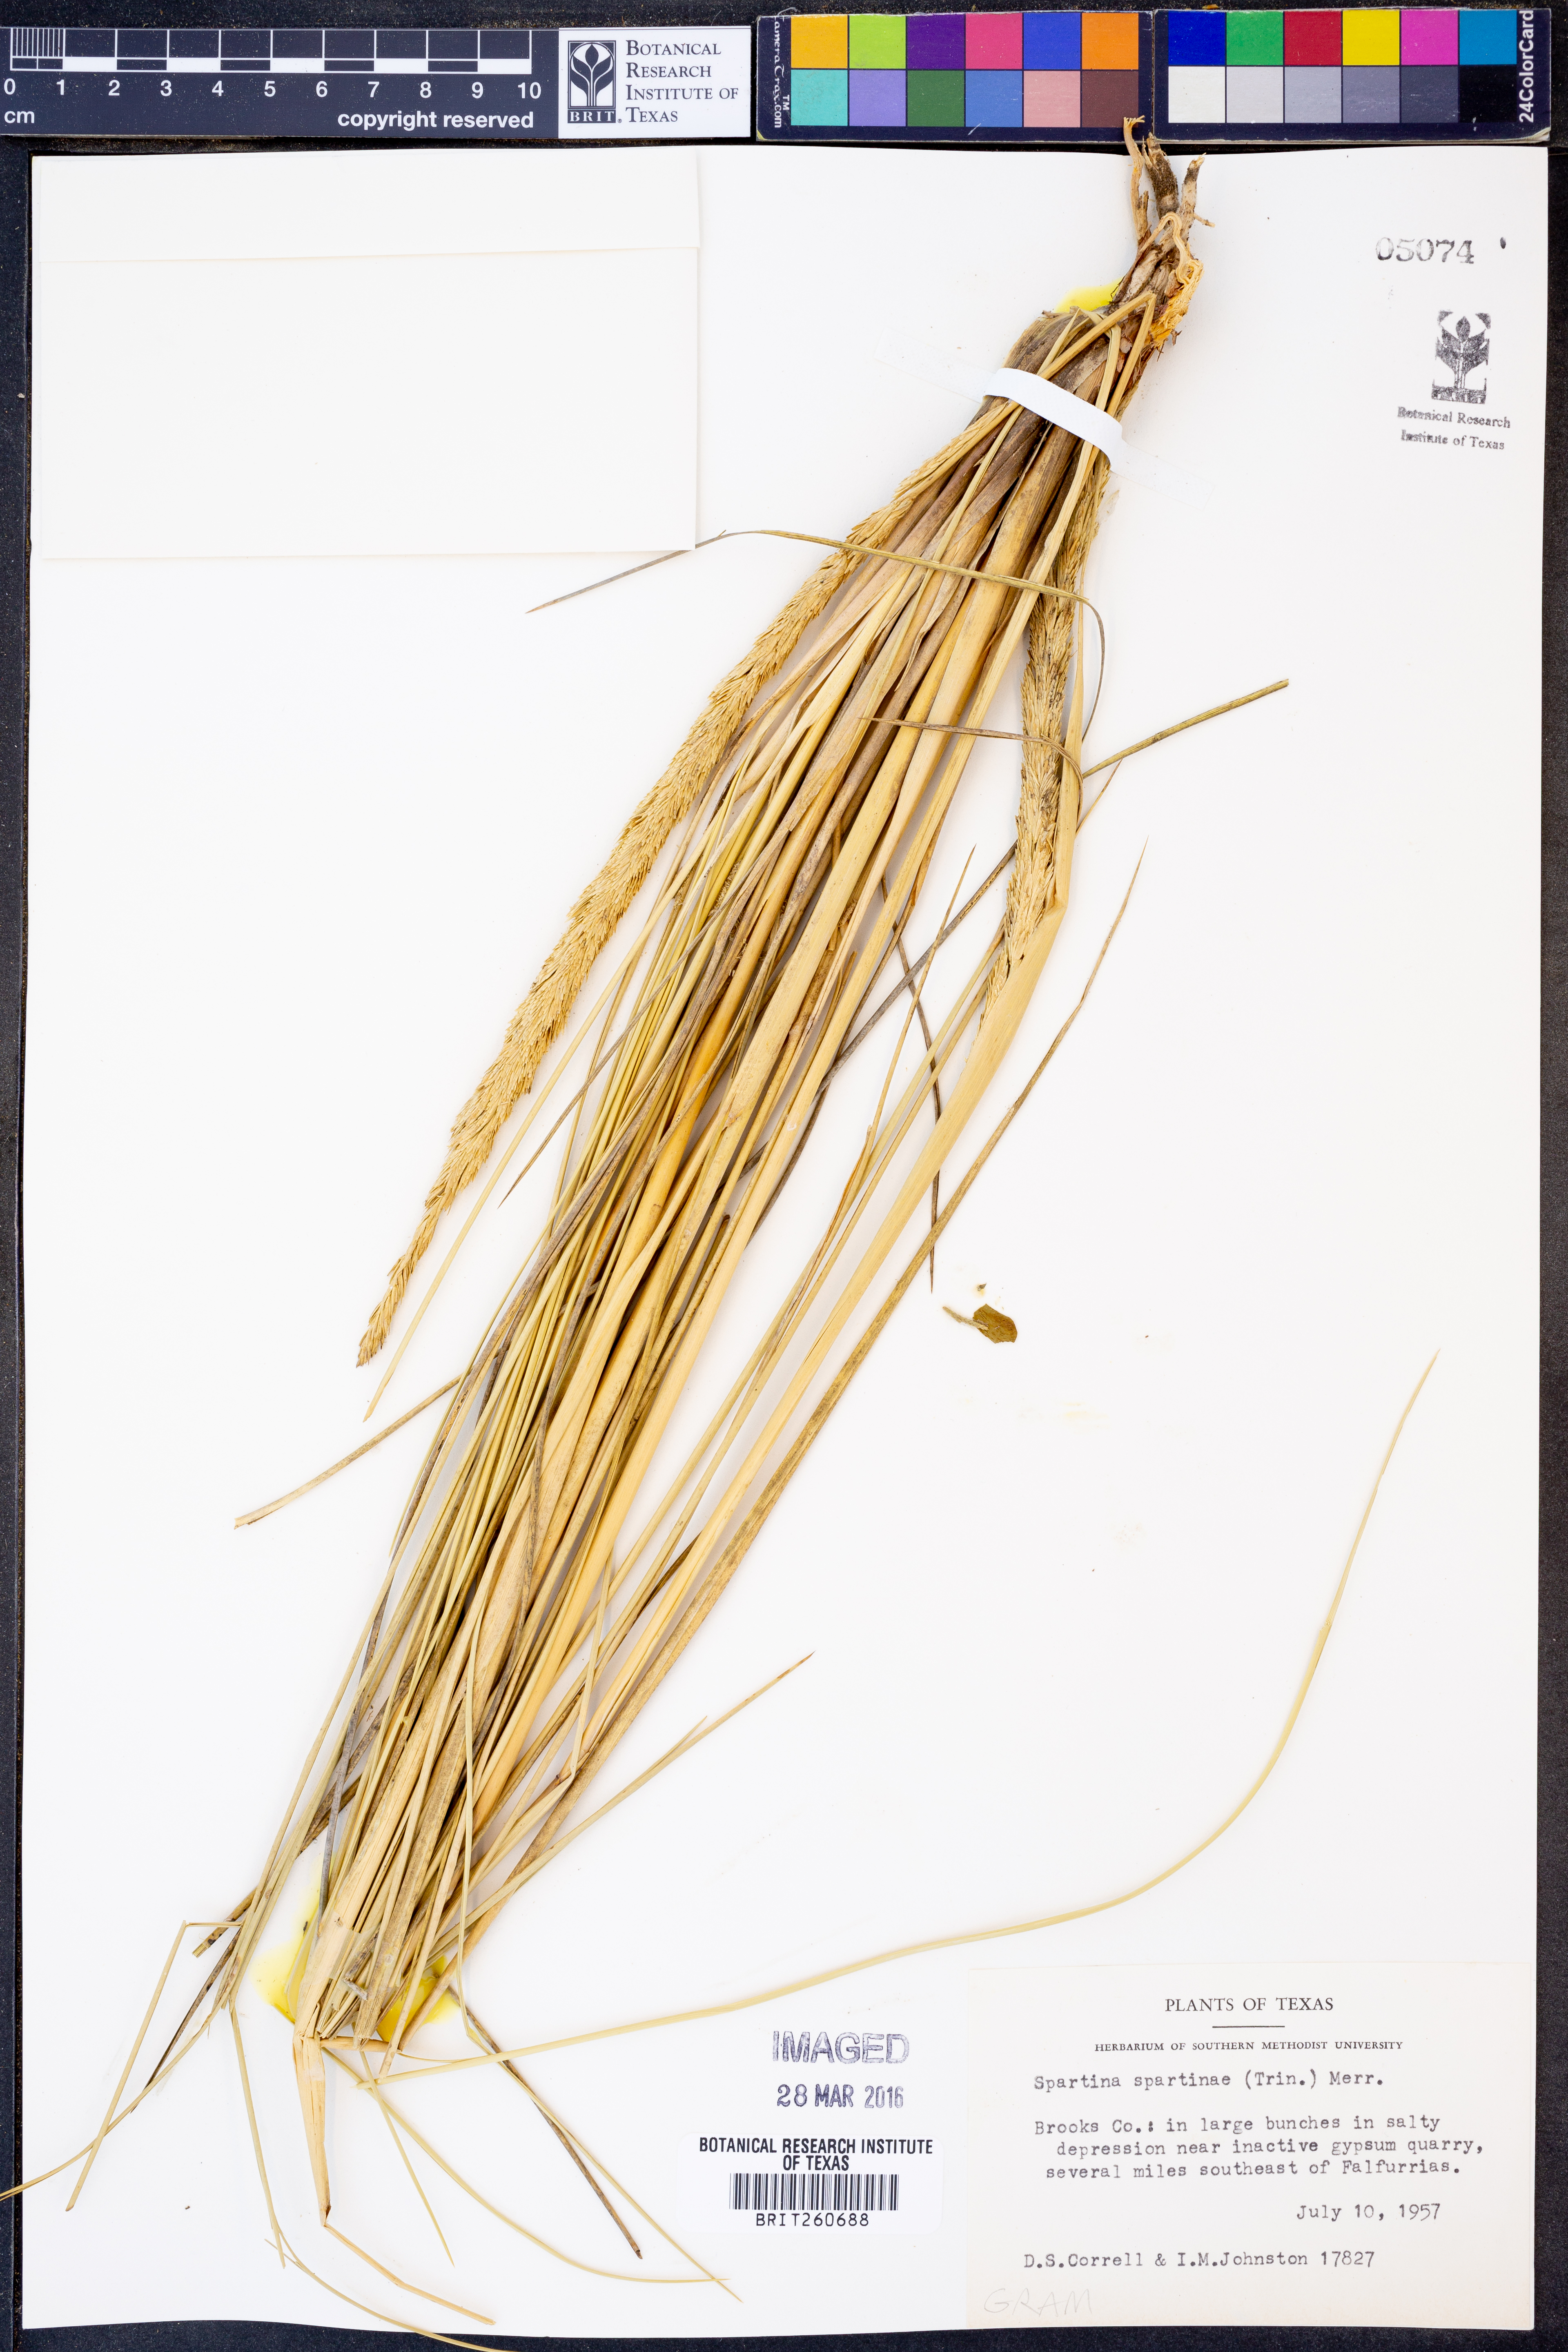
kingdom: Plantae
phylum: Tracheophyta
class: Liliopsida
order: Poales
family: Poaceae
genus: Sporobolus
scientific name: Sporobolus spartinae
